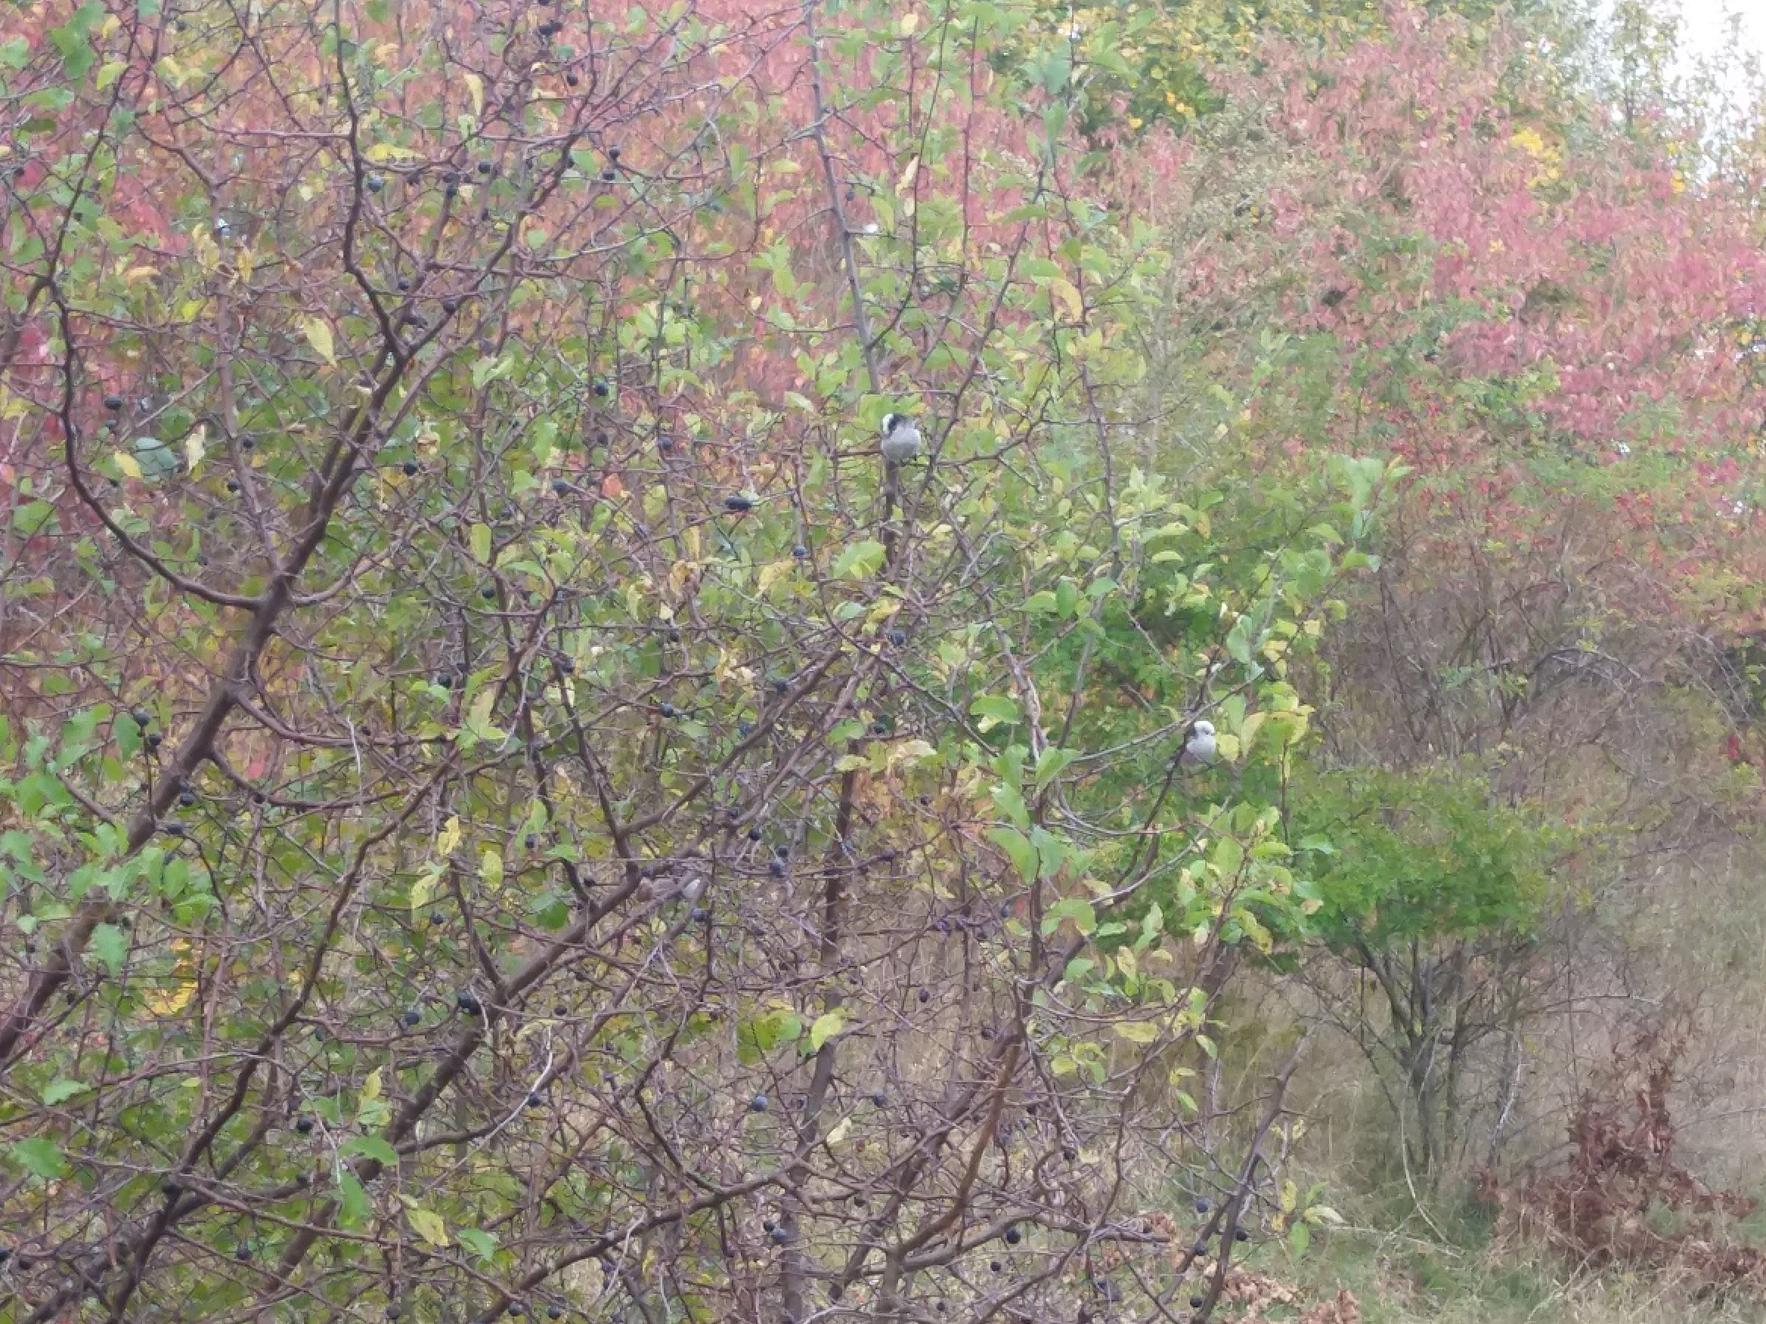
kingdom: Animalia
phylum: Chordata
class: Aves
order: Passeriformes
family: Aegithalidae
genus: Aegithalos
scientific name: Aegithalos caudatus
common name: Nordlig halemejse
